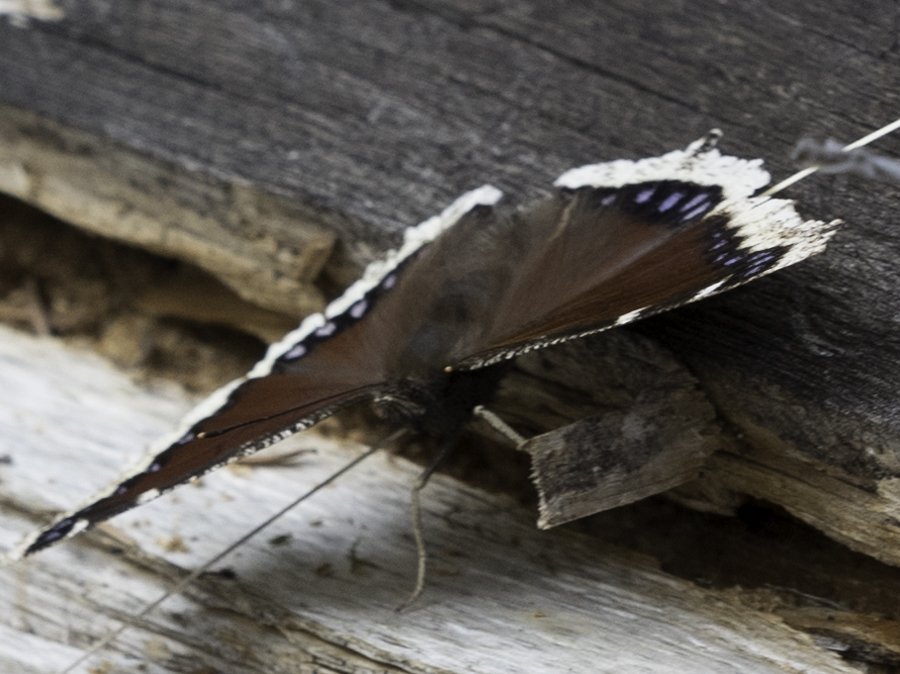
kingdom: Animalia
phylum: Arthropoda
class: Insecta
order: Lepidoptera
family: Nymphalidae
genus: Nymphalis
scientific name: Nymphalis antiopa
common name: Mourning Cloak
